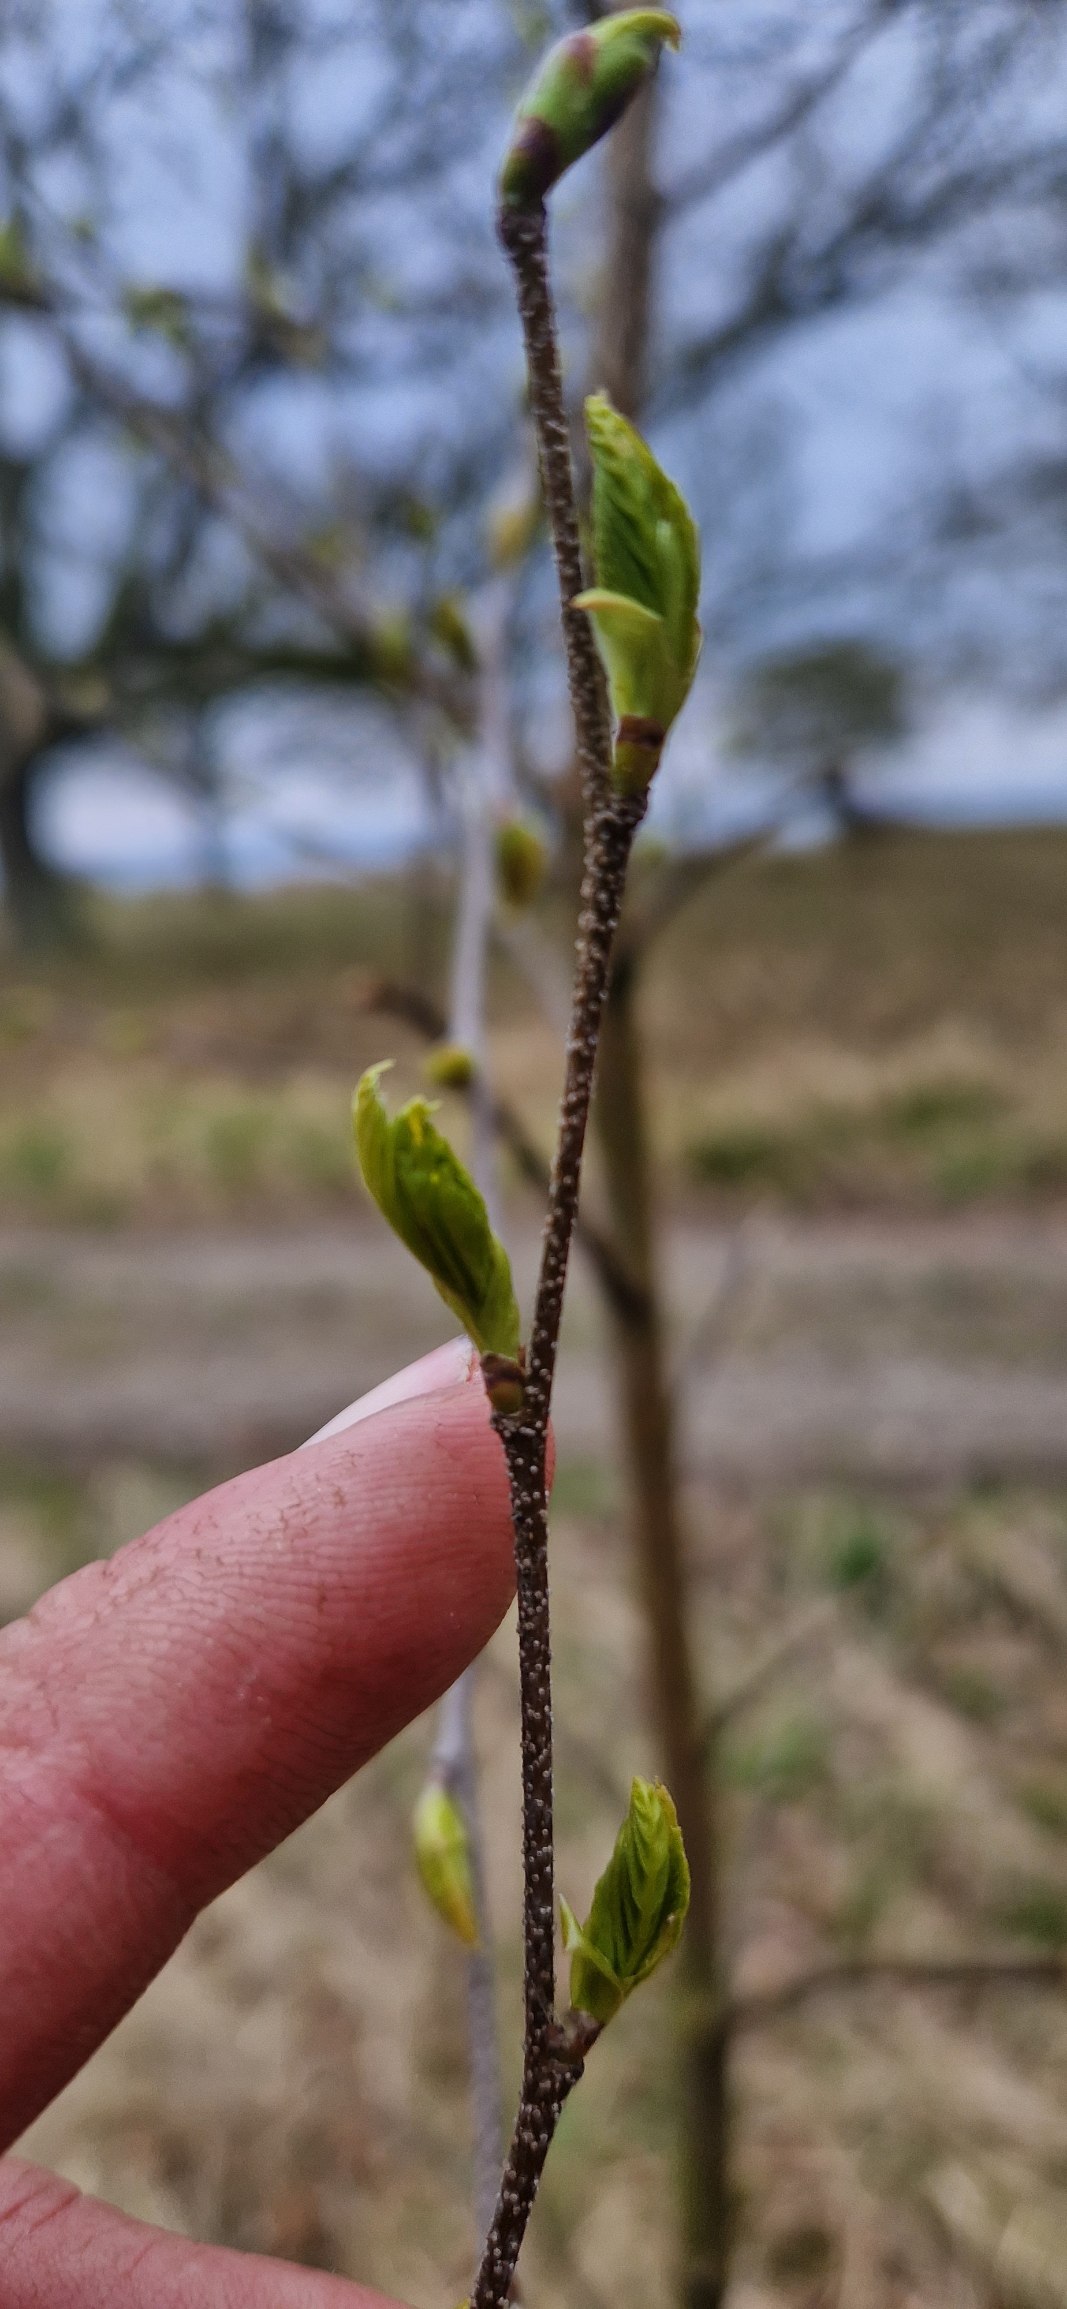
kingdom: Plantae
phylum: Tracheophyta
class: Magnoliopsida
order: Fagales
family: Betulaceae
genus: Betula
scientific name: Betula pendula
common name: Vorte-birk
